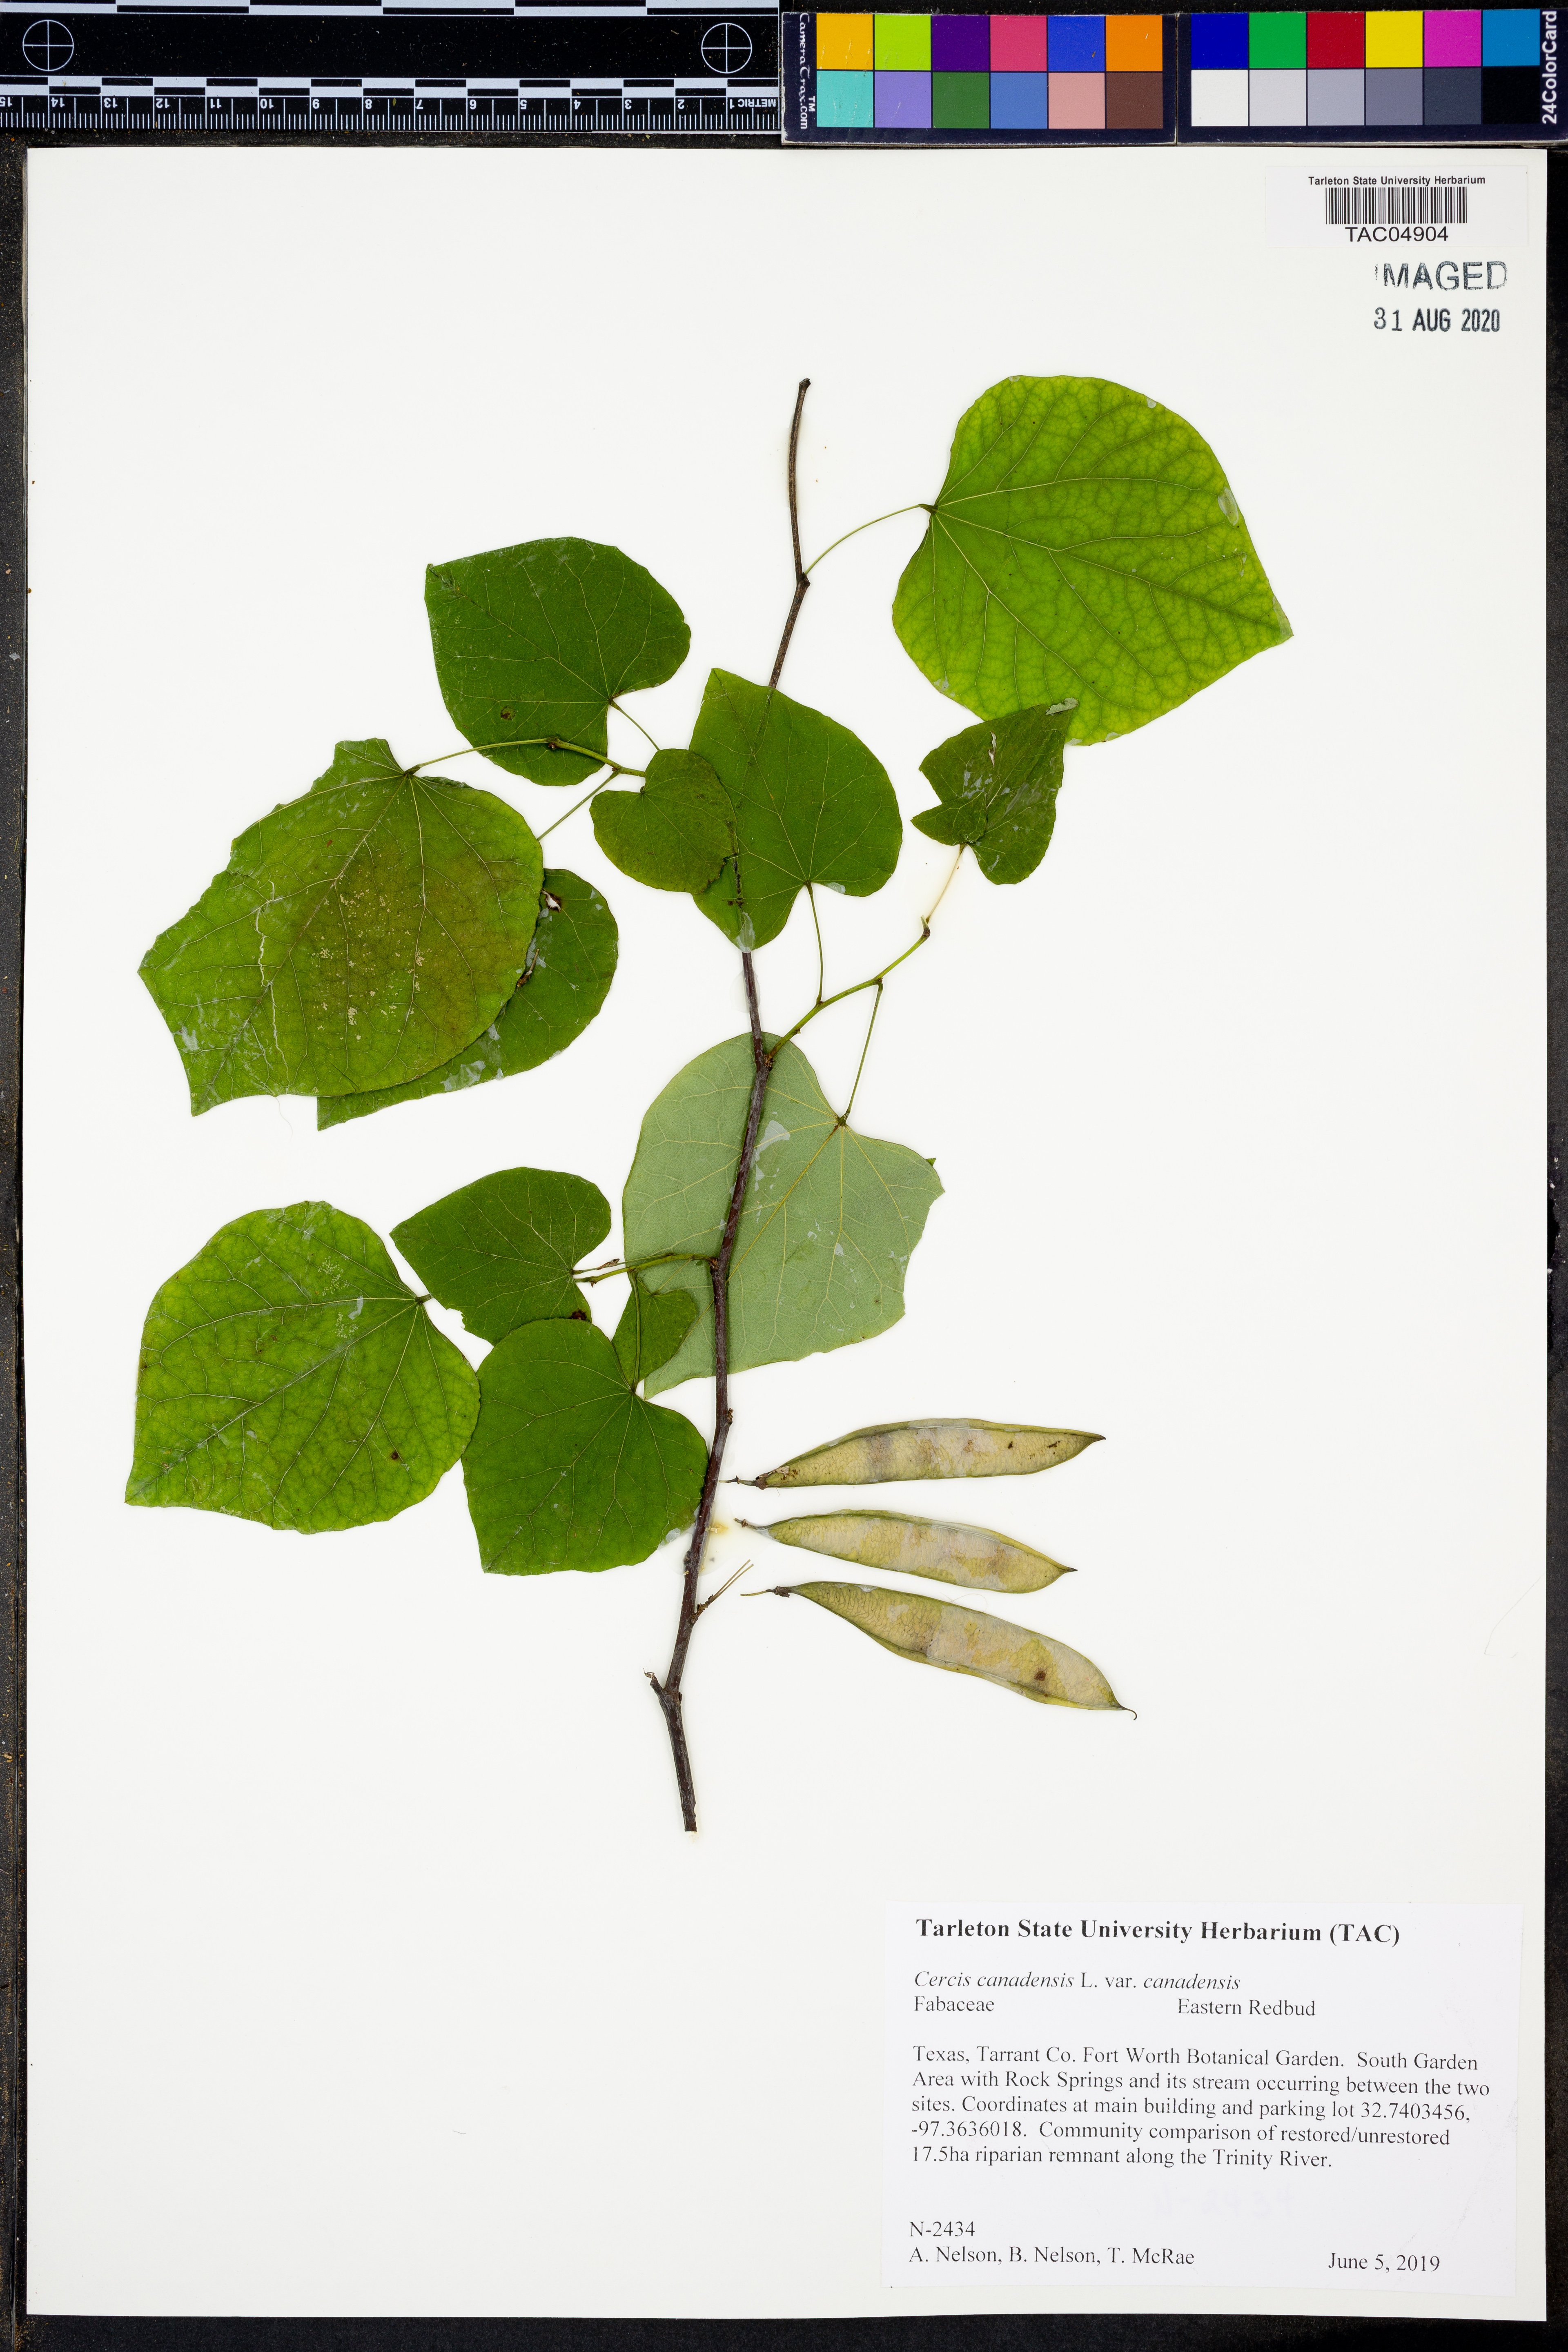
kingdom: Plantae
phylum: Tracheophyta
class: Magnoliopsida
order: Fabales
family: Fabaceae
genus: Cercis
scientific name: Cercis canadensis
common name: Eastern redbud
